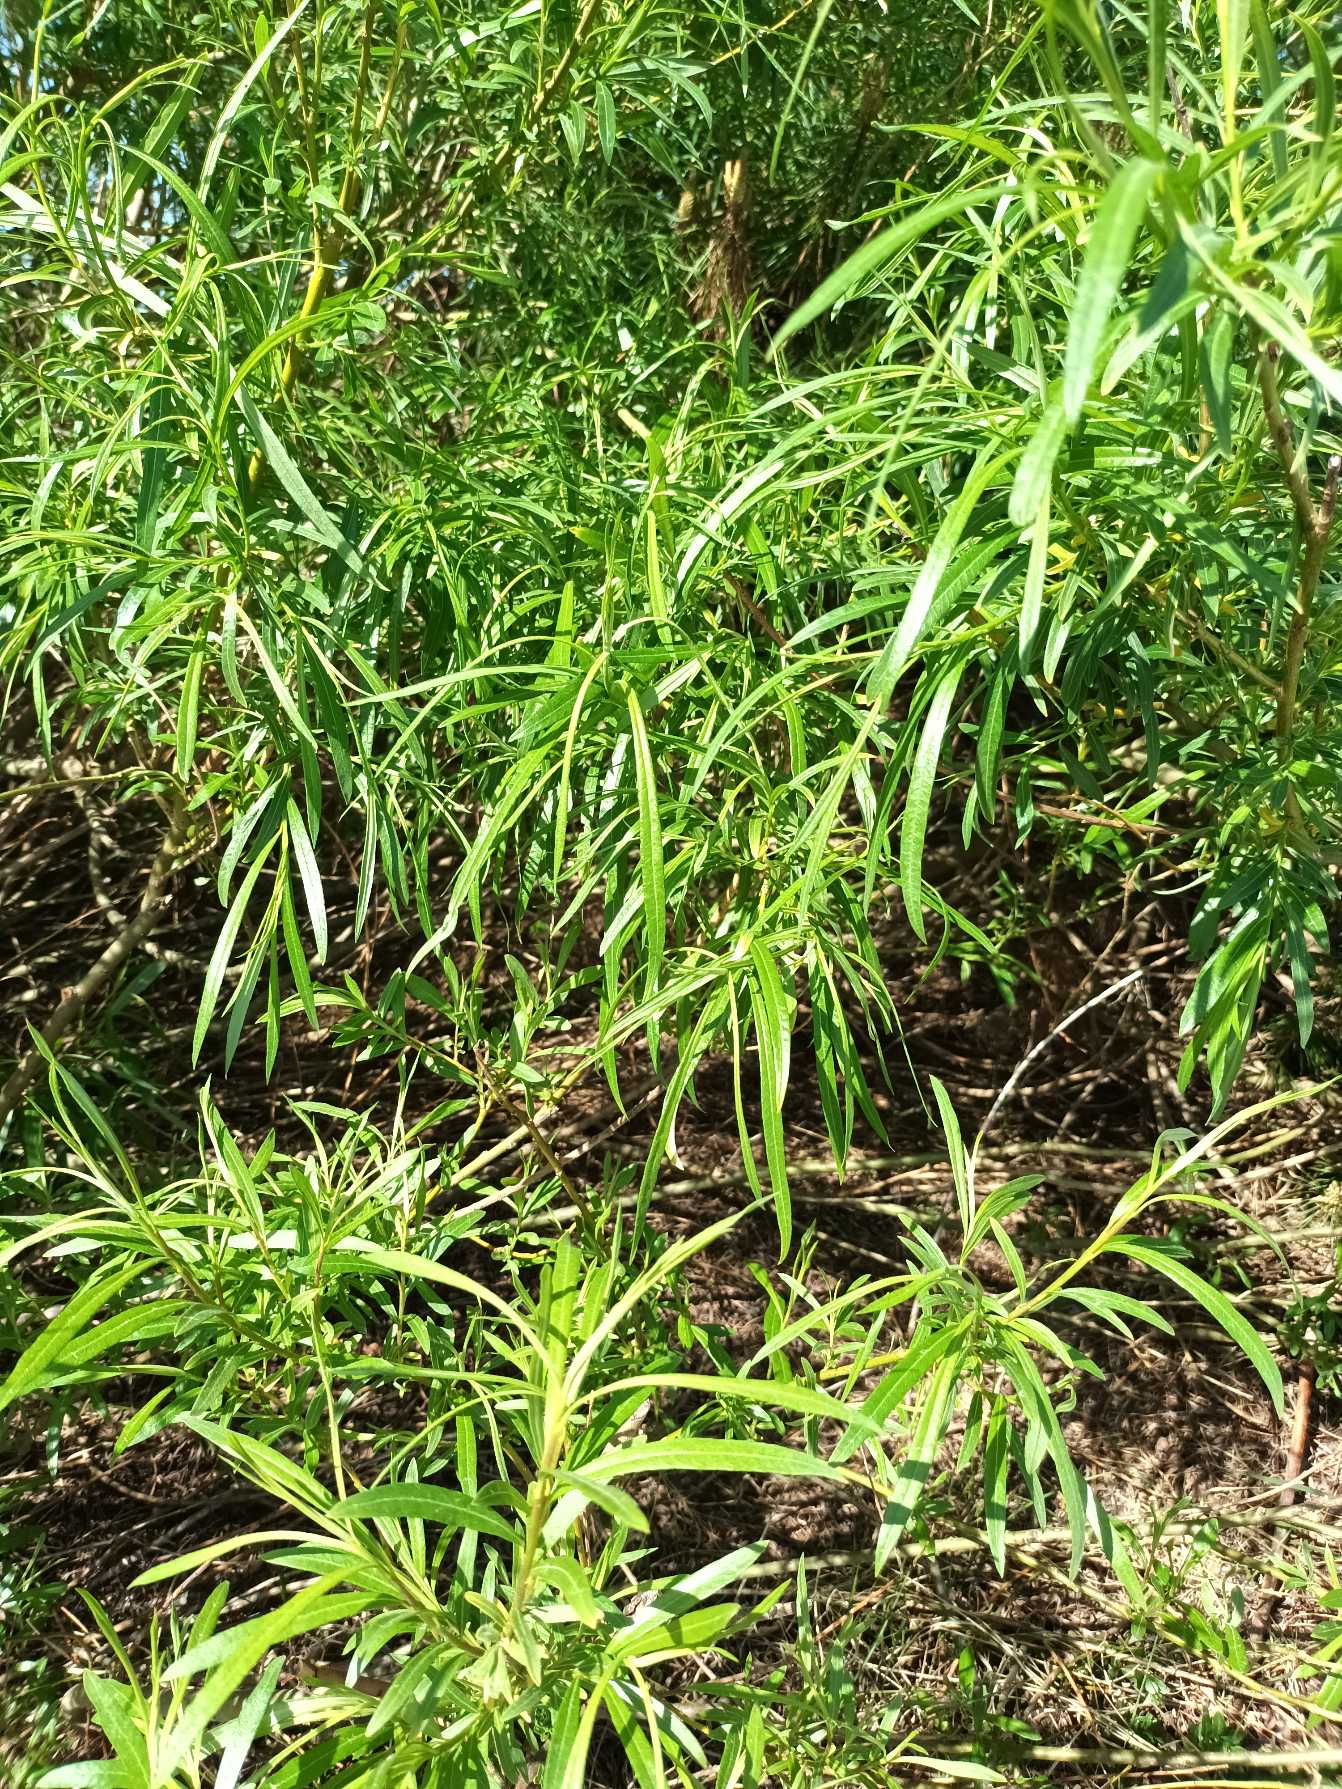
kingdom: Plantae
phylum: Tracheophyta
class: Magnoliopsida
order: Malpighiales
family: Salicaceae
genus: Salix
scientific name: Salix viminalis
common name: Bånd-pil
